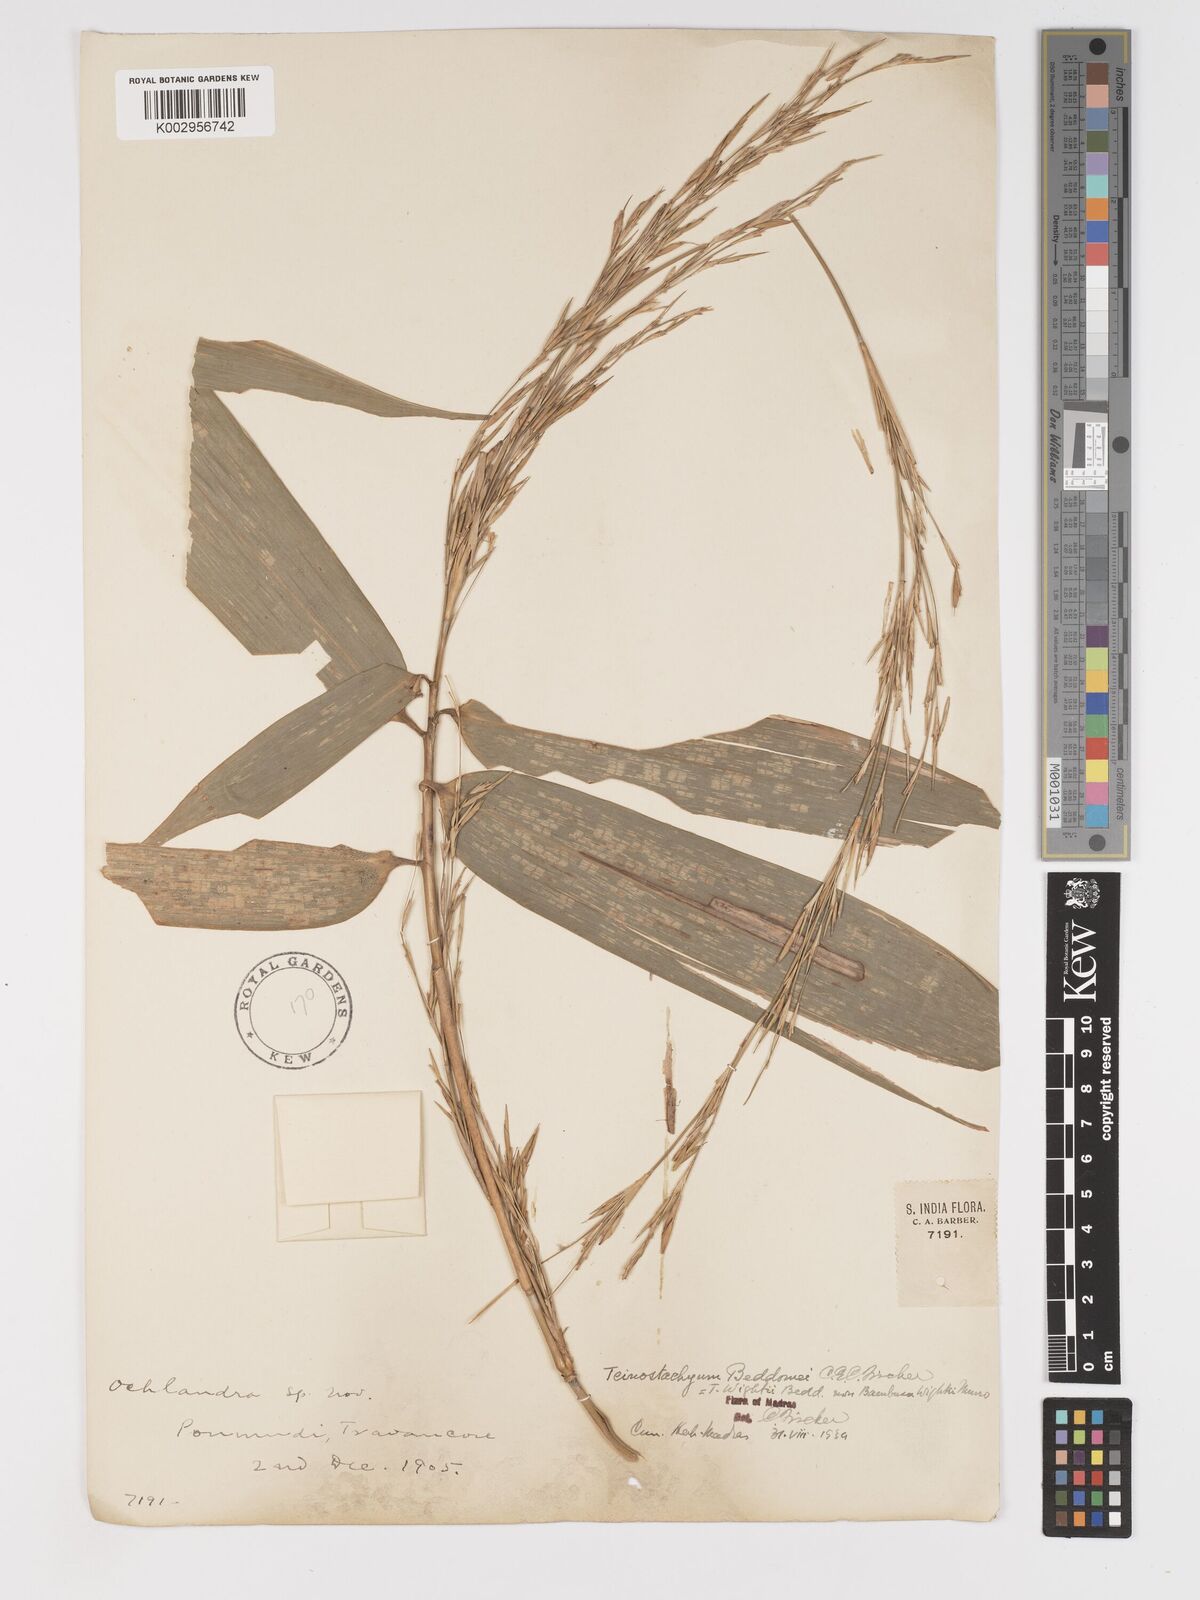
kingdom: Plantae
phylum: Tracheophyta
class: Liliopsida
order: Poales
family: Poaceae
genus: Ochlandra
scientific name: Ochlandra wightii
